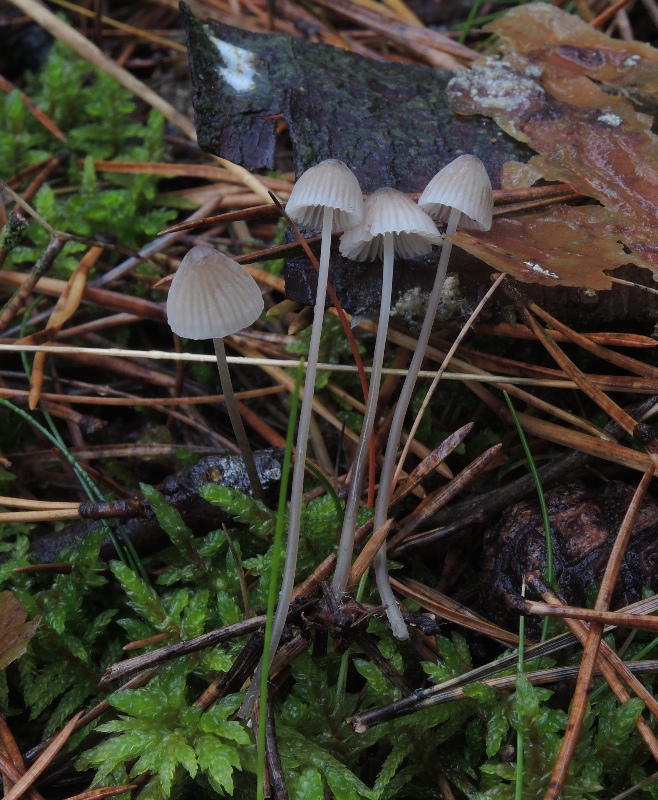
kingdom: Fungi
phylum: Basidiomycota
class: Agaricomycetes
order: Agaricales
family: Mycenaceae
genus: Mycena
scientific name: Mycena
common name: huesvamp
